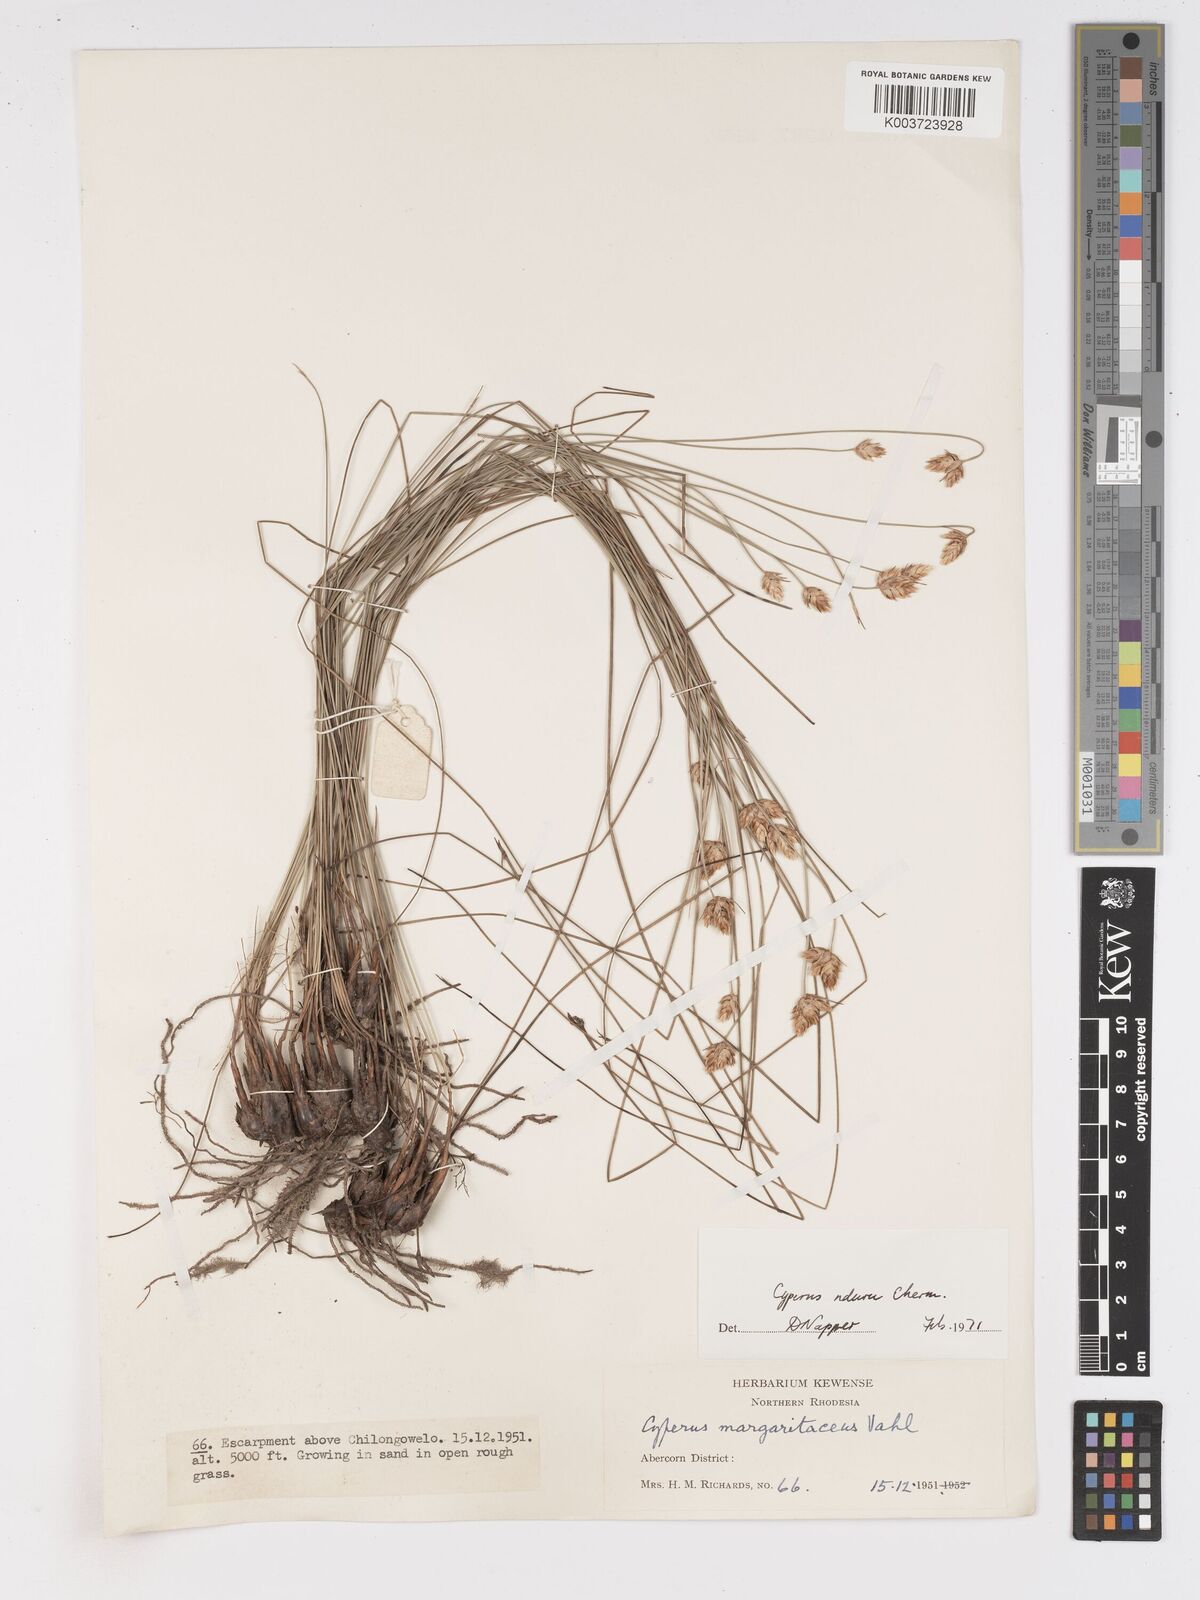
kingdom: Plantae
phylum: Tracheophyta
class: Liliopsida
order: Poales
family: Cyperaceae
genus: Cyperus
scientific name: Cyperus nduru
